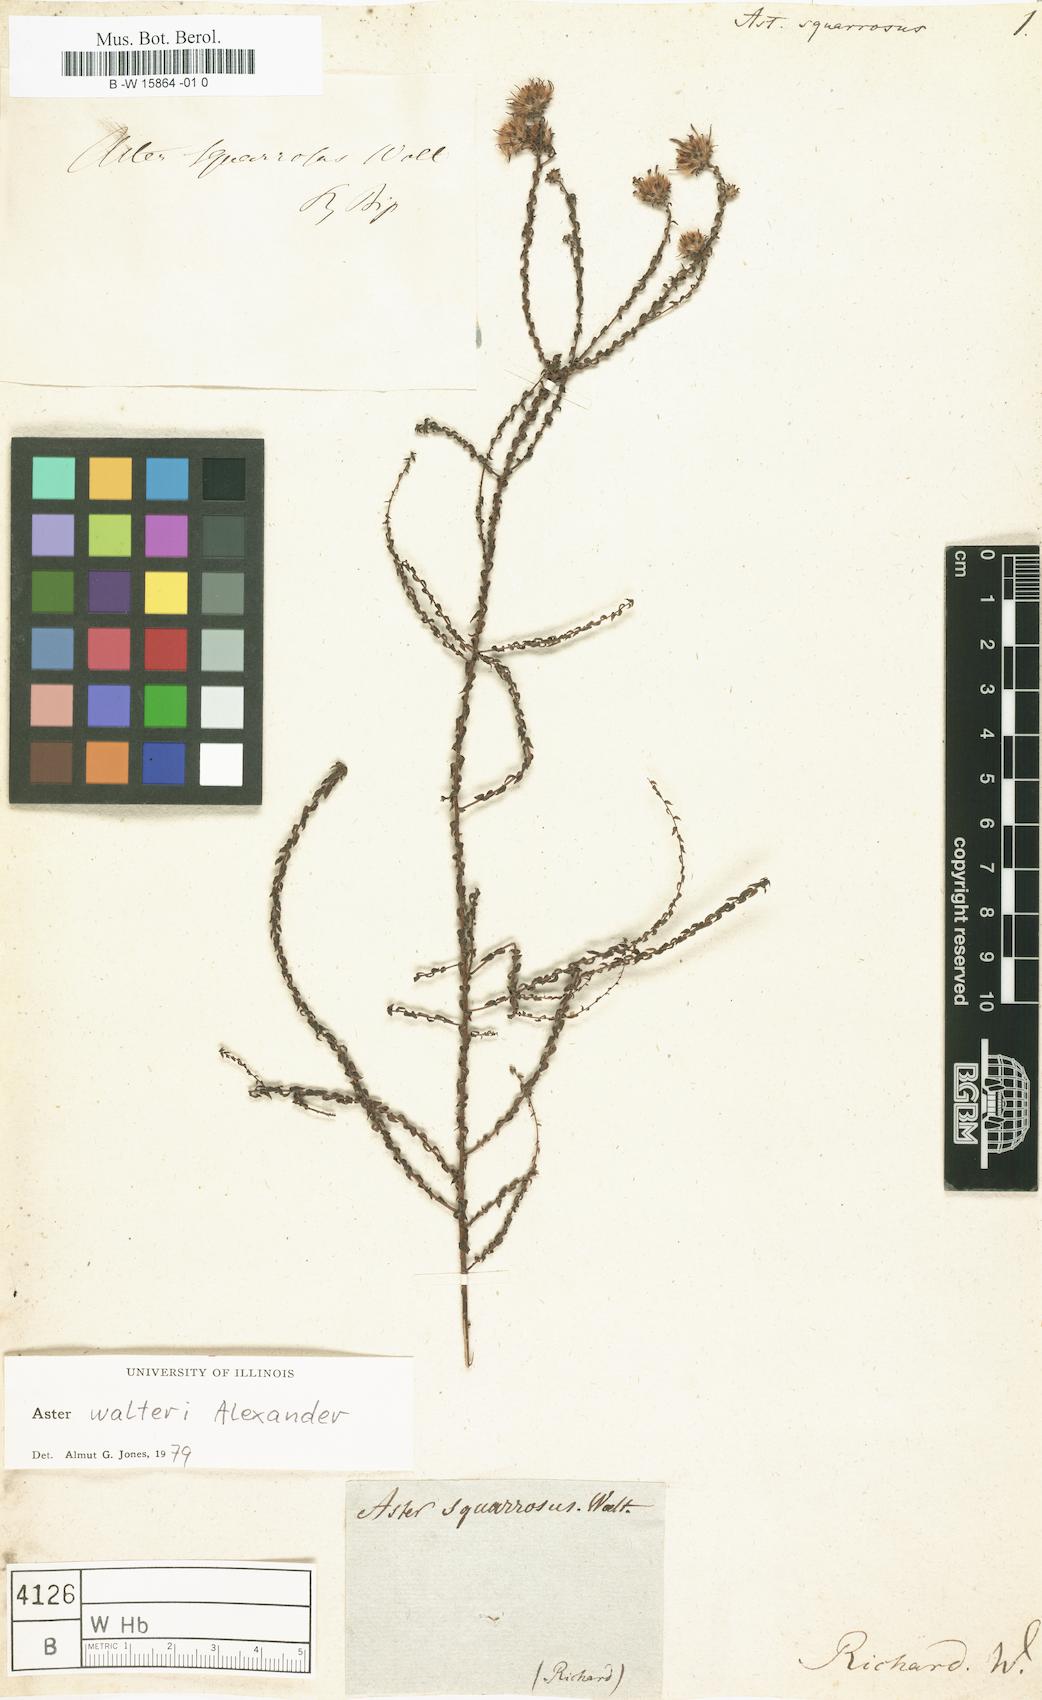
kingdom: Plantae
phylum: Tracheophyta
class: Magnoliopsida
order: Asterales
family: Asteraceae
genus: Pentanema
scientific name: Pentanema spiraeifolium
